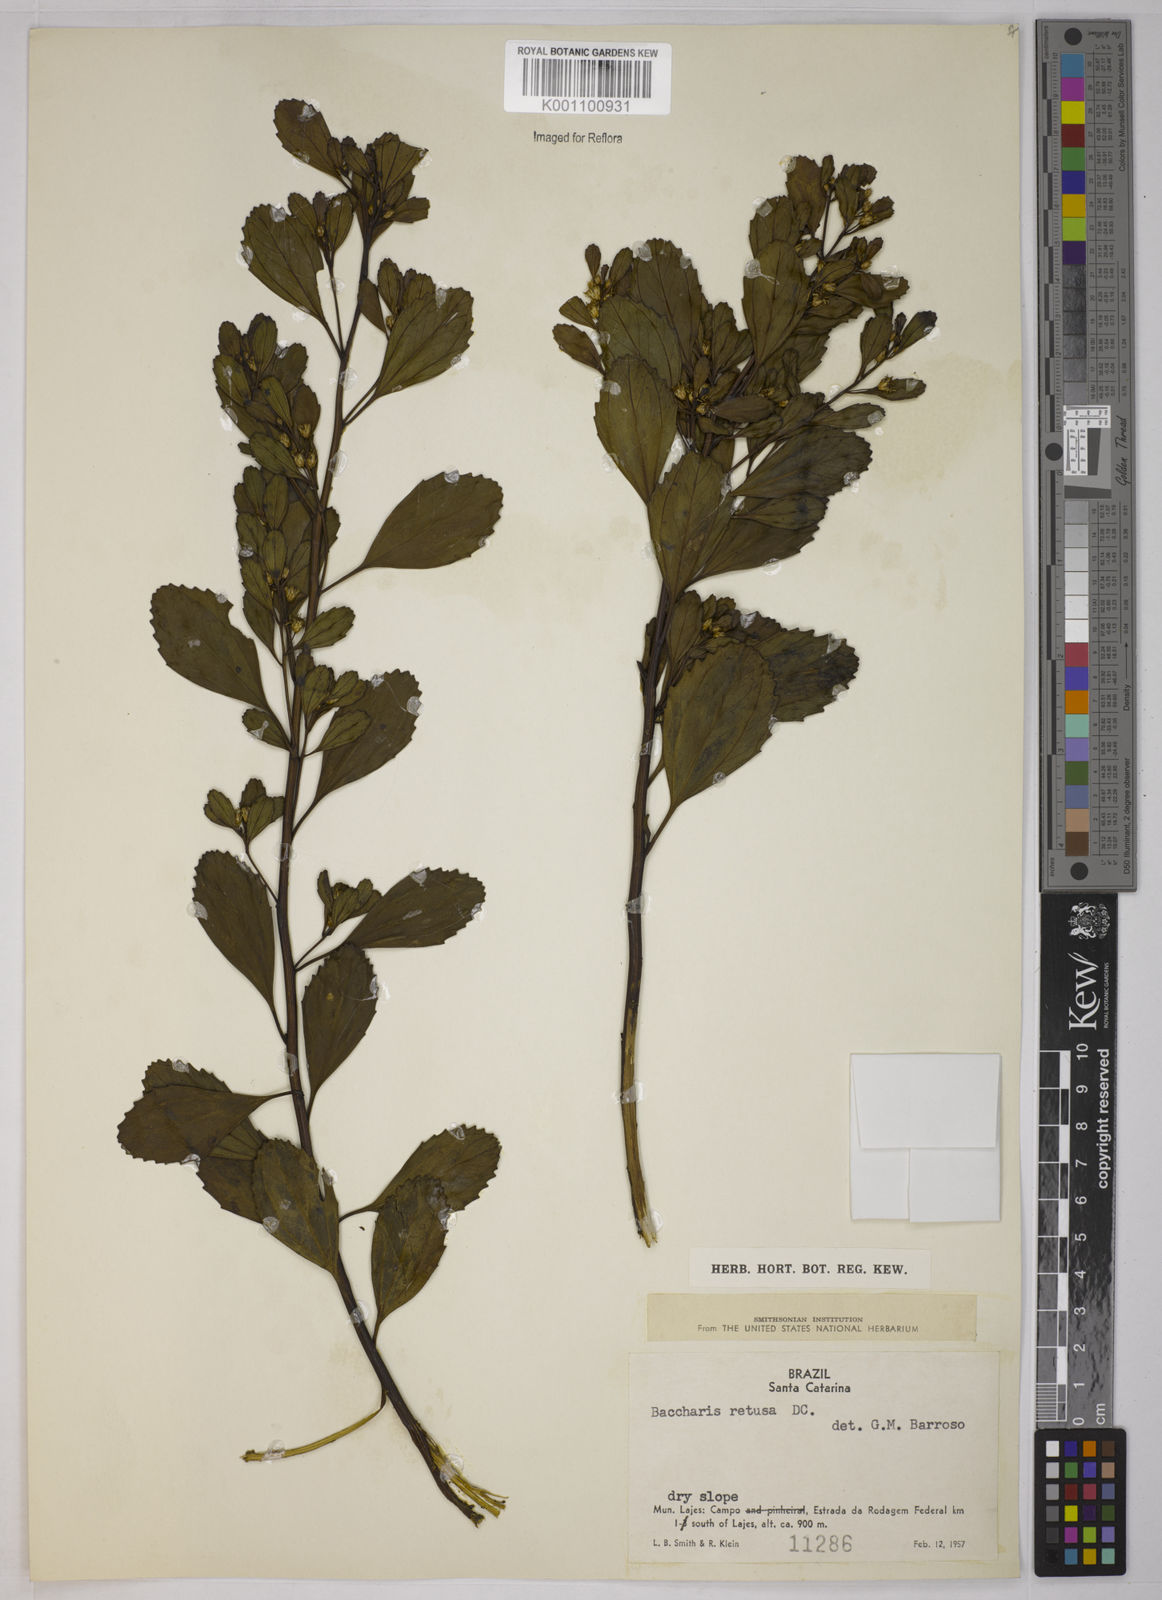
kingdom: Plantae
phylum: Tracheophyta
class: Magnoliopsida
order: Asterales
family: Asteraceae
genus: Baccharis
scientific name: Baccharis retusa
